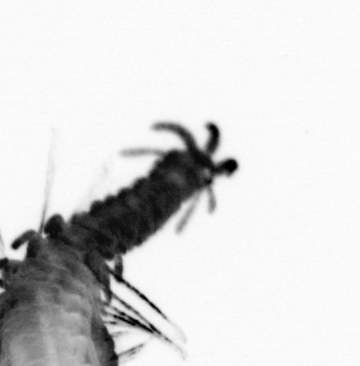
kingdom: Animalia
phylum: Annelida
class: Polychaeta
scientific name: Polychaeta
